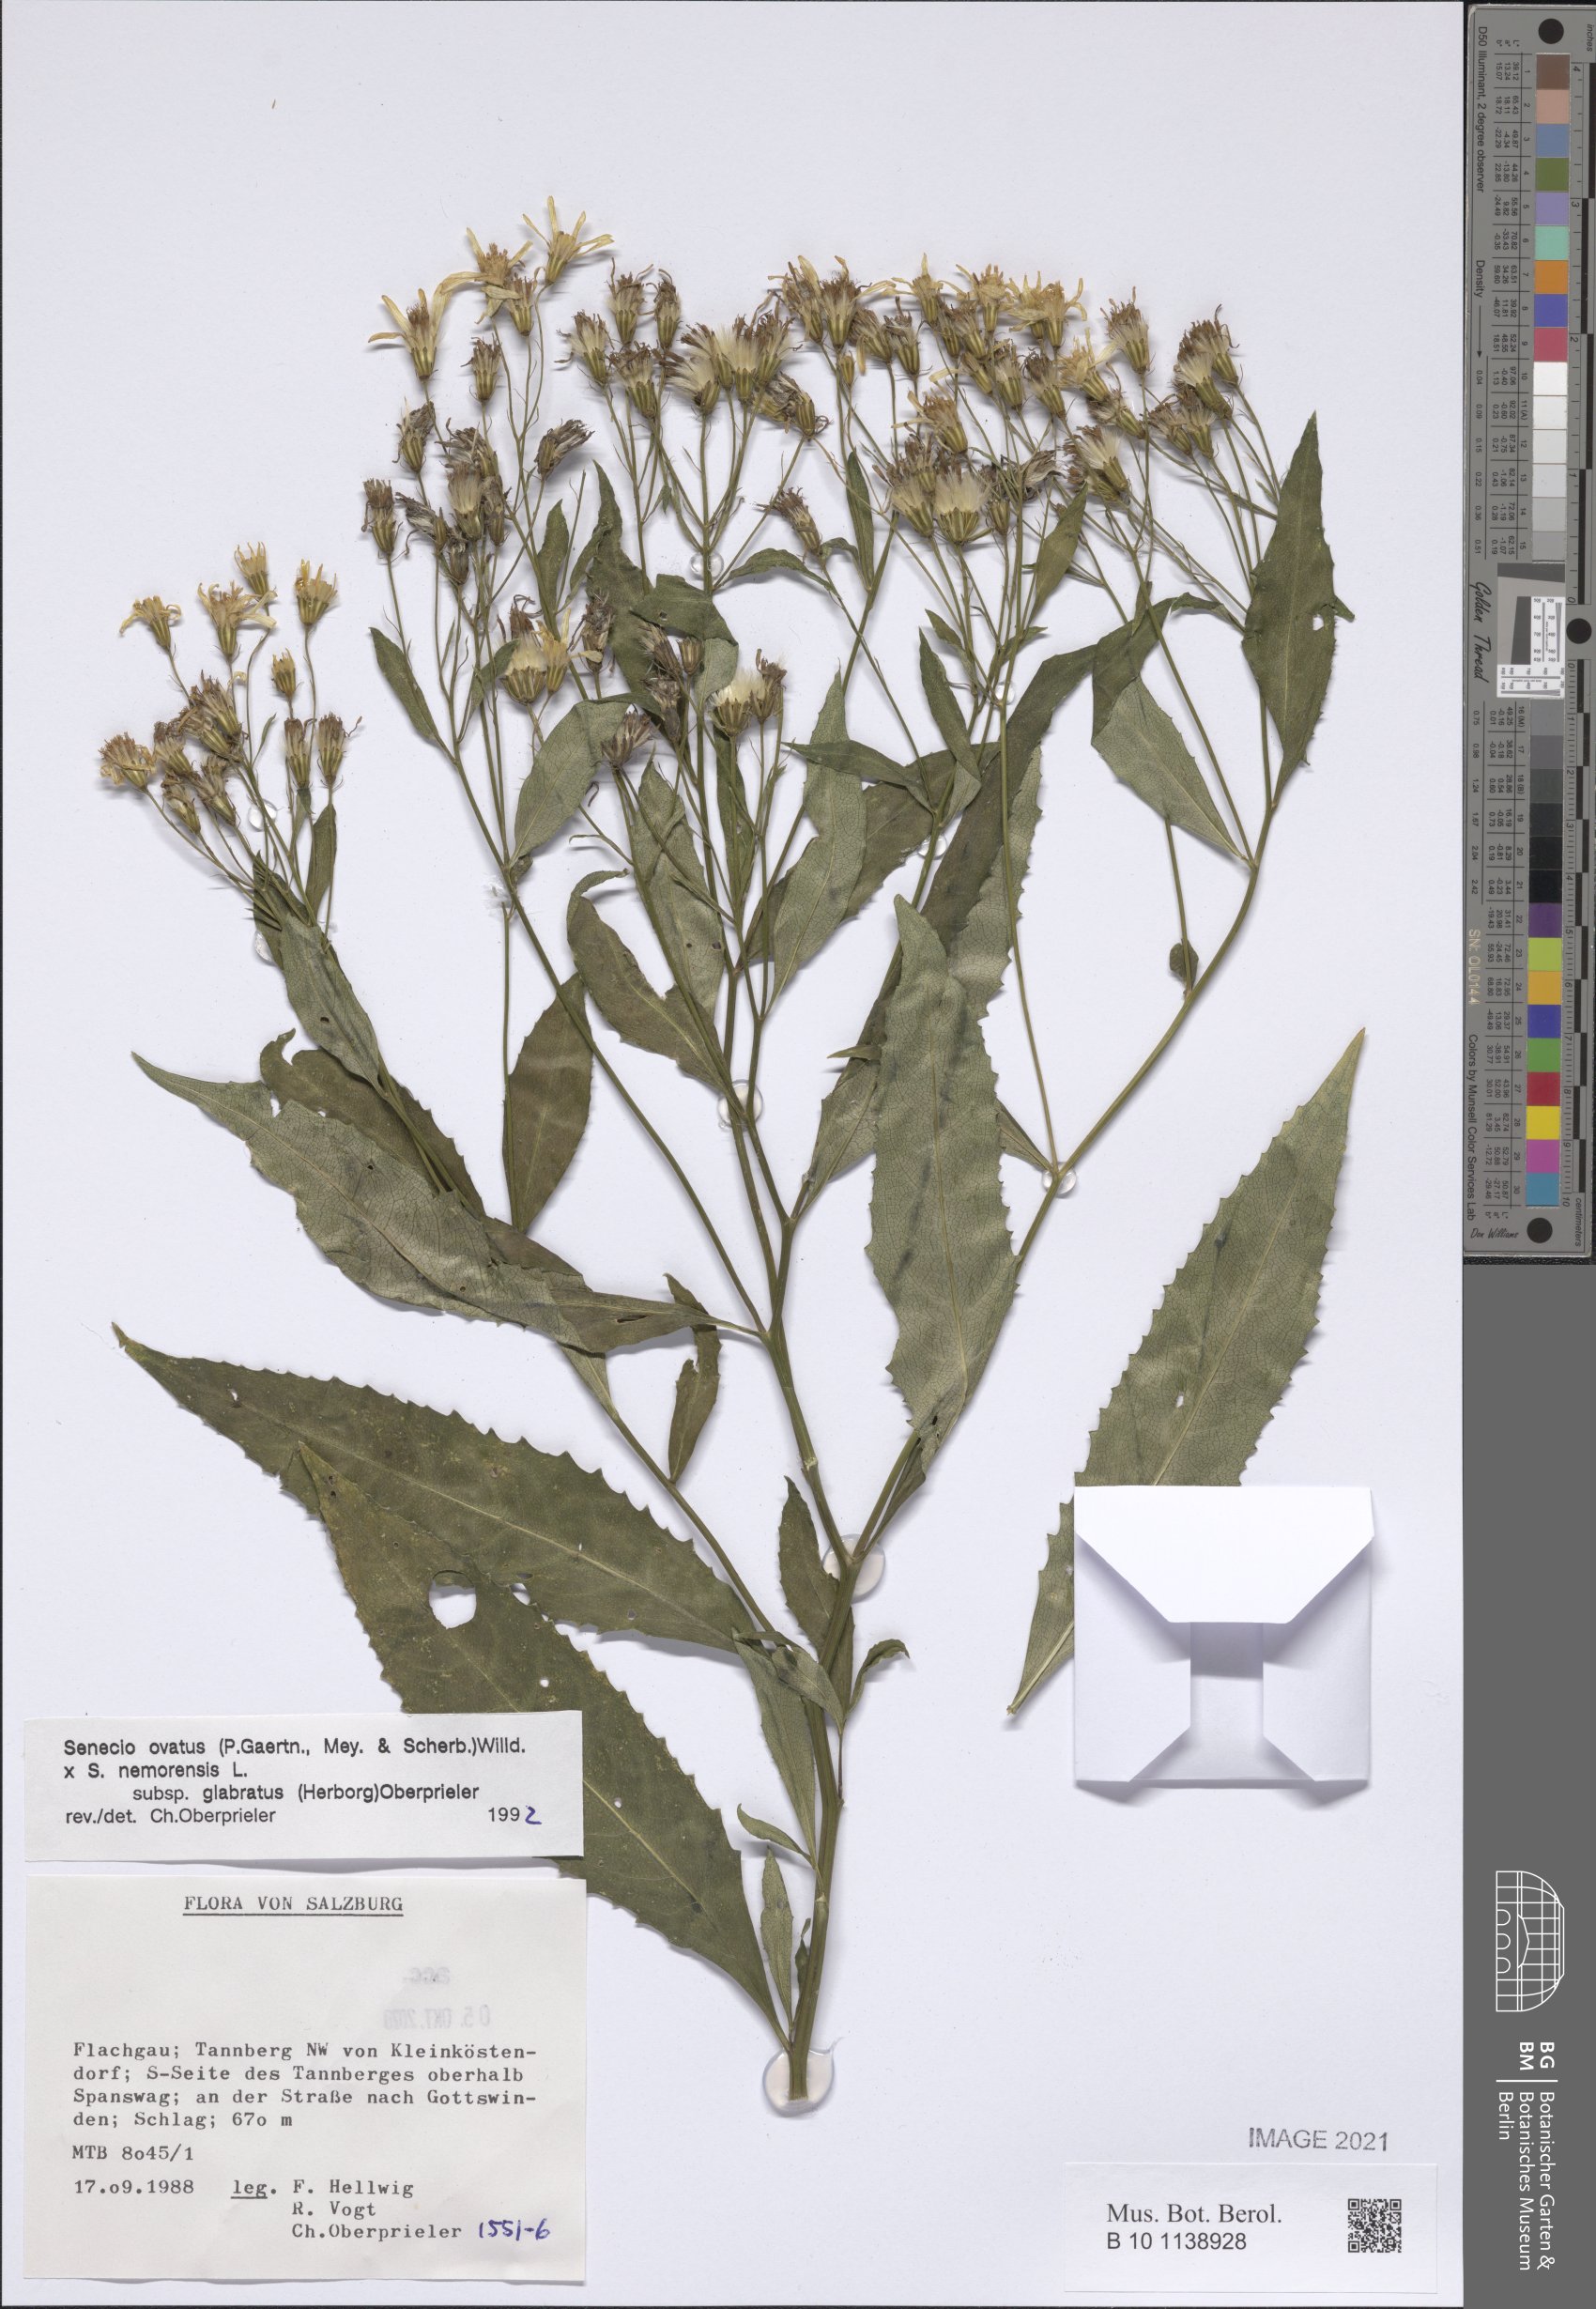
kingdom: Plantae
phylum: Tracheophyta
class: Magnoliopsida
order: Asterales
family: Asteraceae
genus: Senecio
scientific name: Senecio ovatus
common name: Wood ragwort
